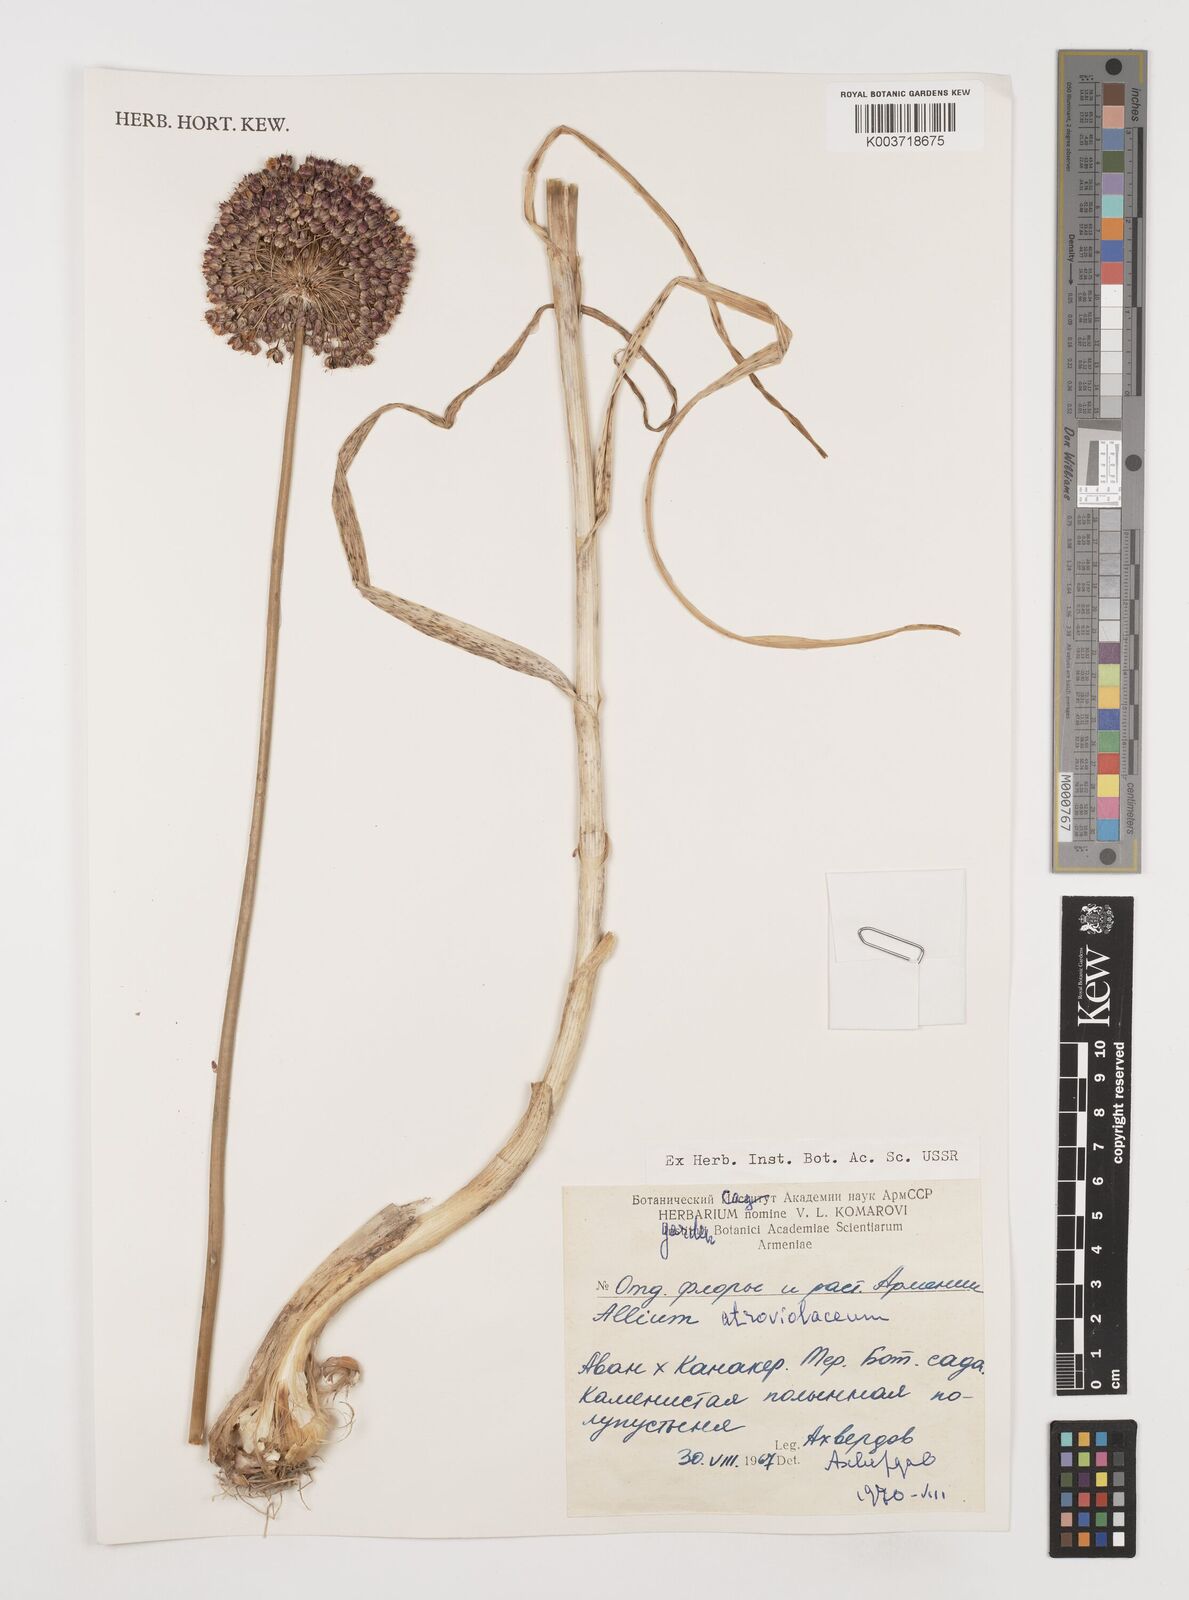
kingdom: Plantae
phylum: Tracheophyta
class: Liliopsida
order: Asparagales
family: Amaryllidaceae
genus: Allium
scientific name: Allium atroviolaceum
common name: Broadleaf wild leek
